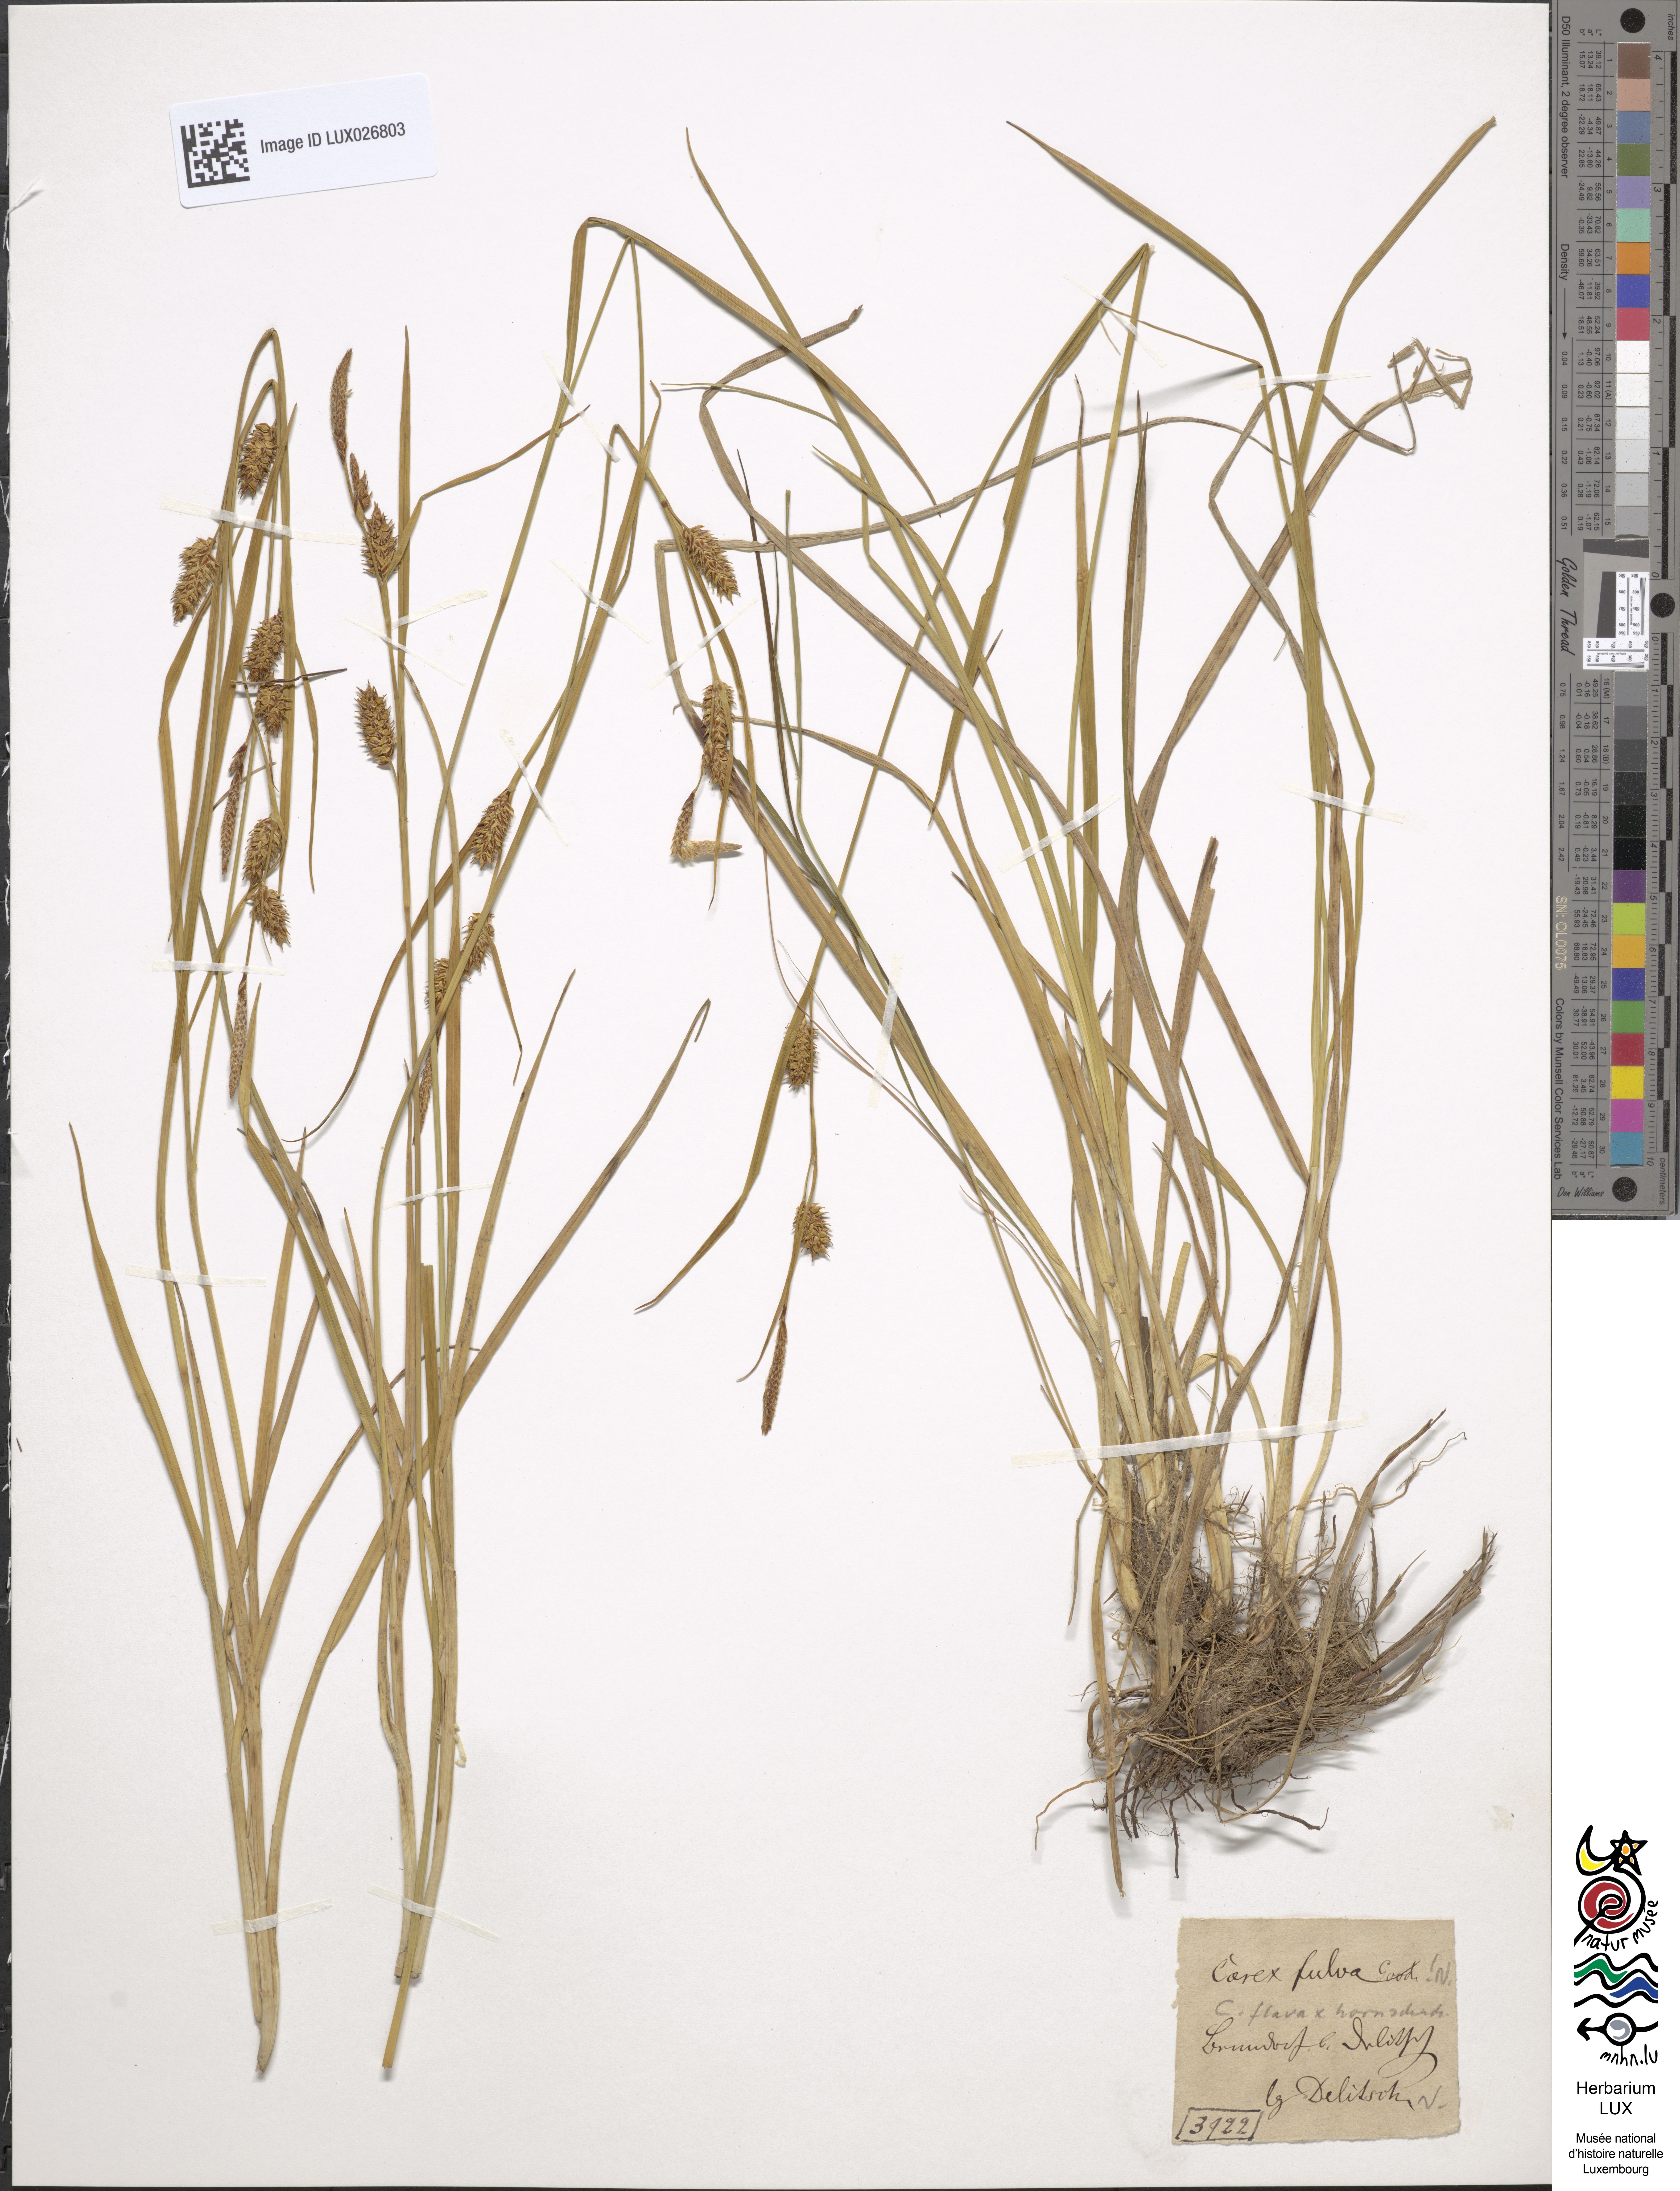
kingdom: Plantae
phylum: Tracheophyta
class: Liliopsida
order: Poales
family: Cyperaceae
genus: Carex
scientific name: Carex fulva
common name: Leutz's sedge
